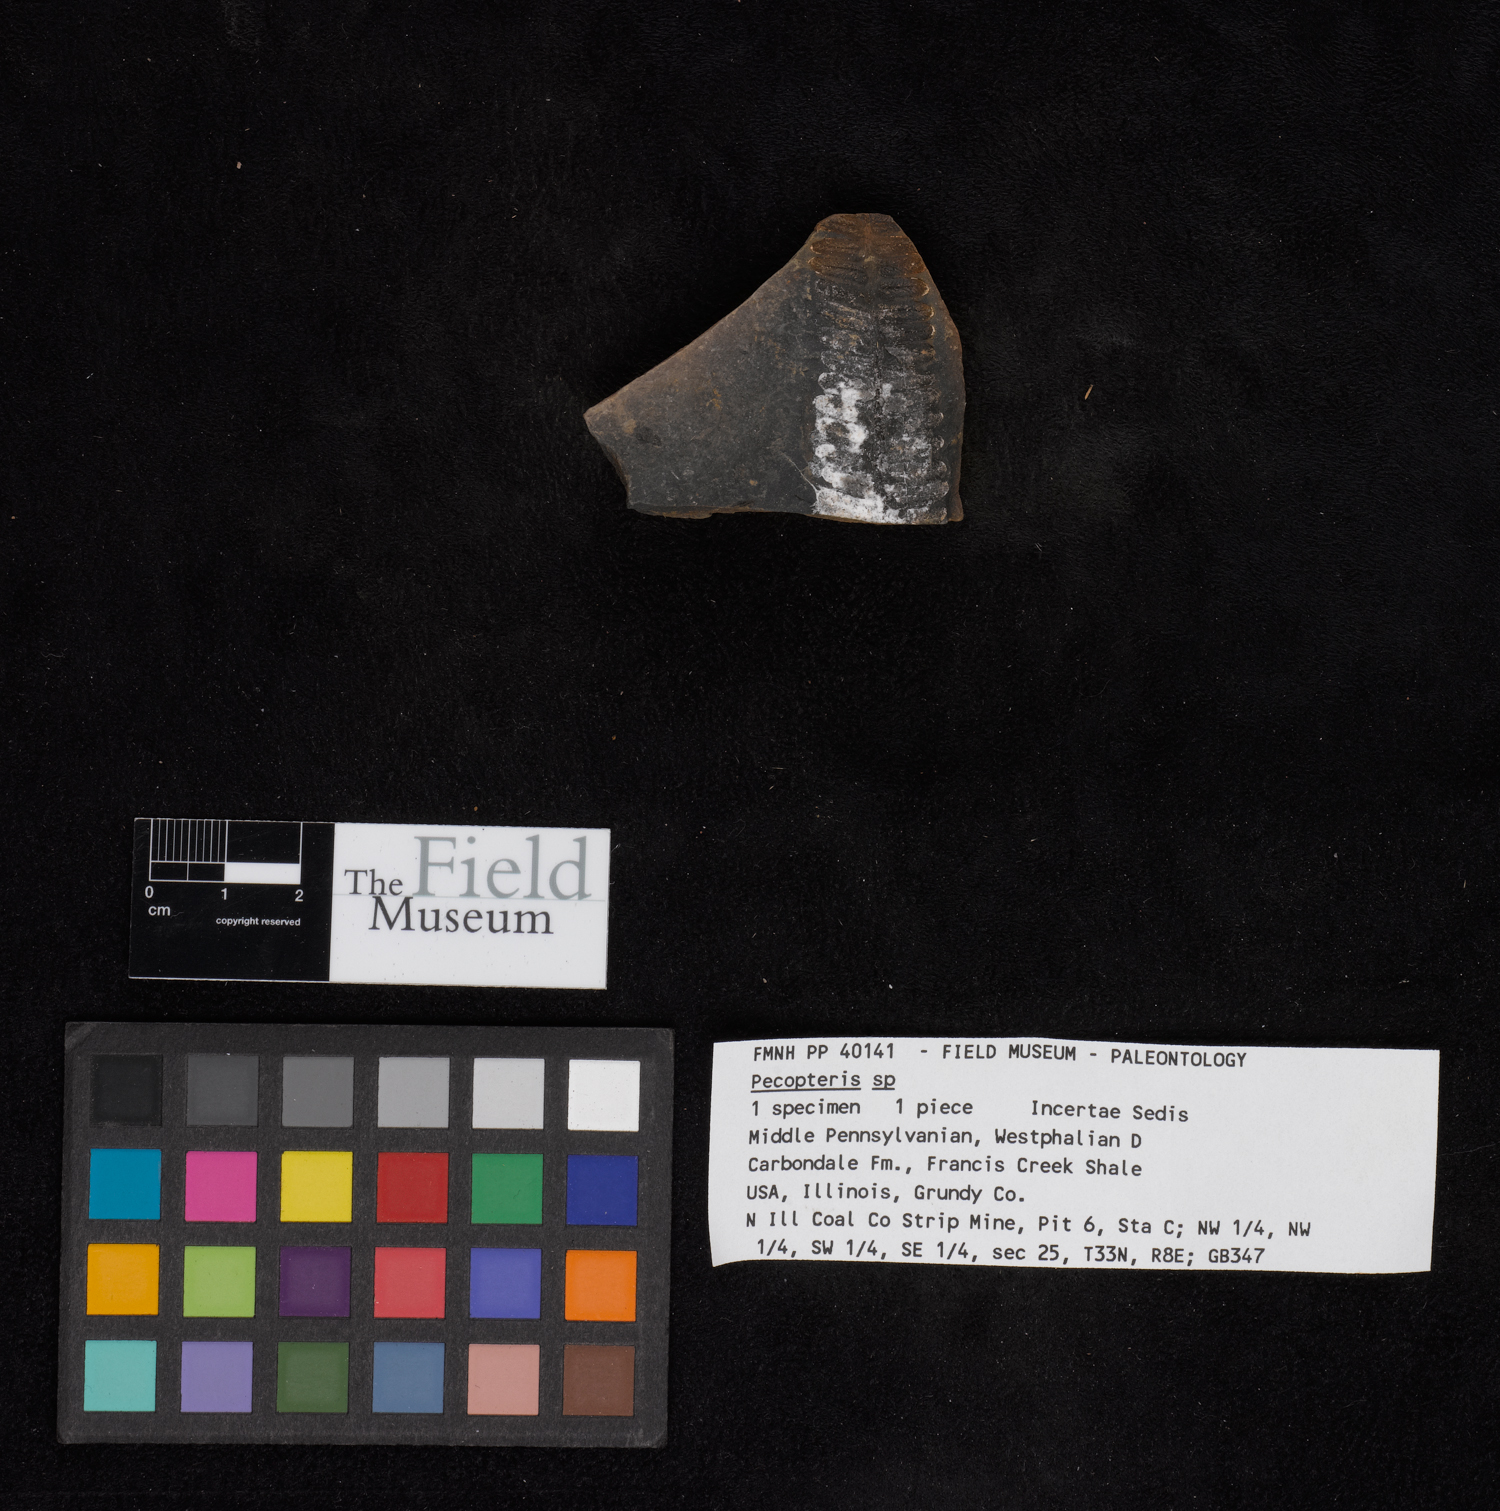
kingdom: Plantae
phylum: Tracheophyta
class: Polypodiopsida
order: Marattiales
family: Asterothecaceae
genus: Pecopteris
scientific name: Pecopteris
